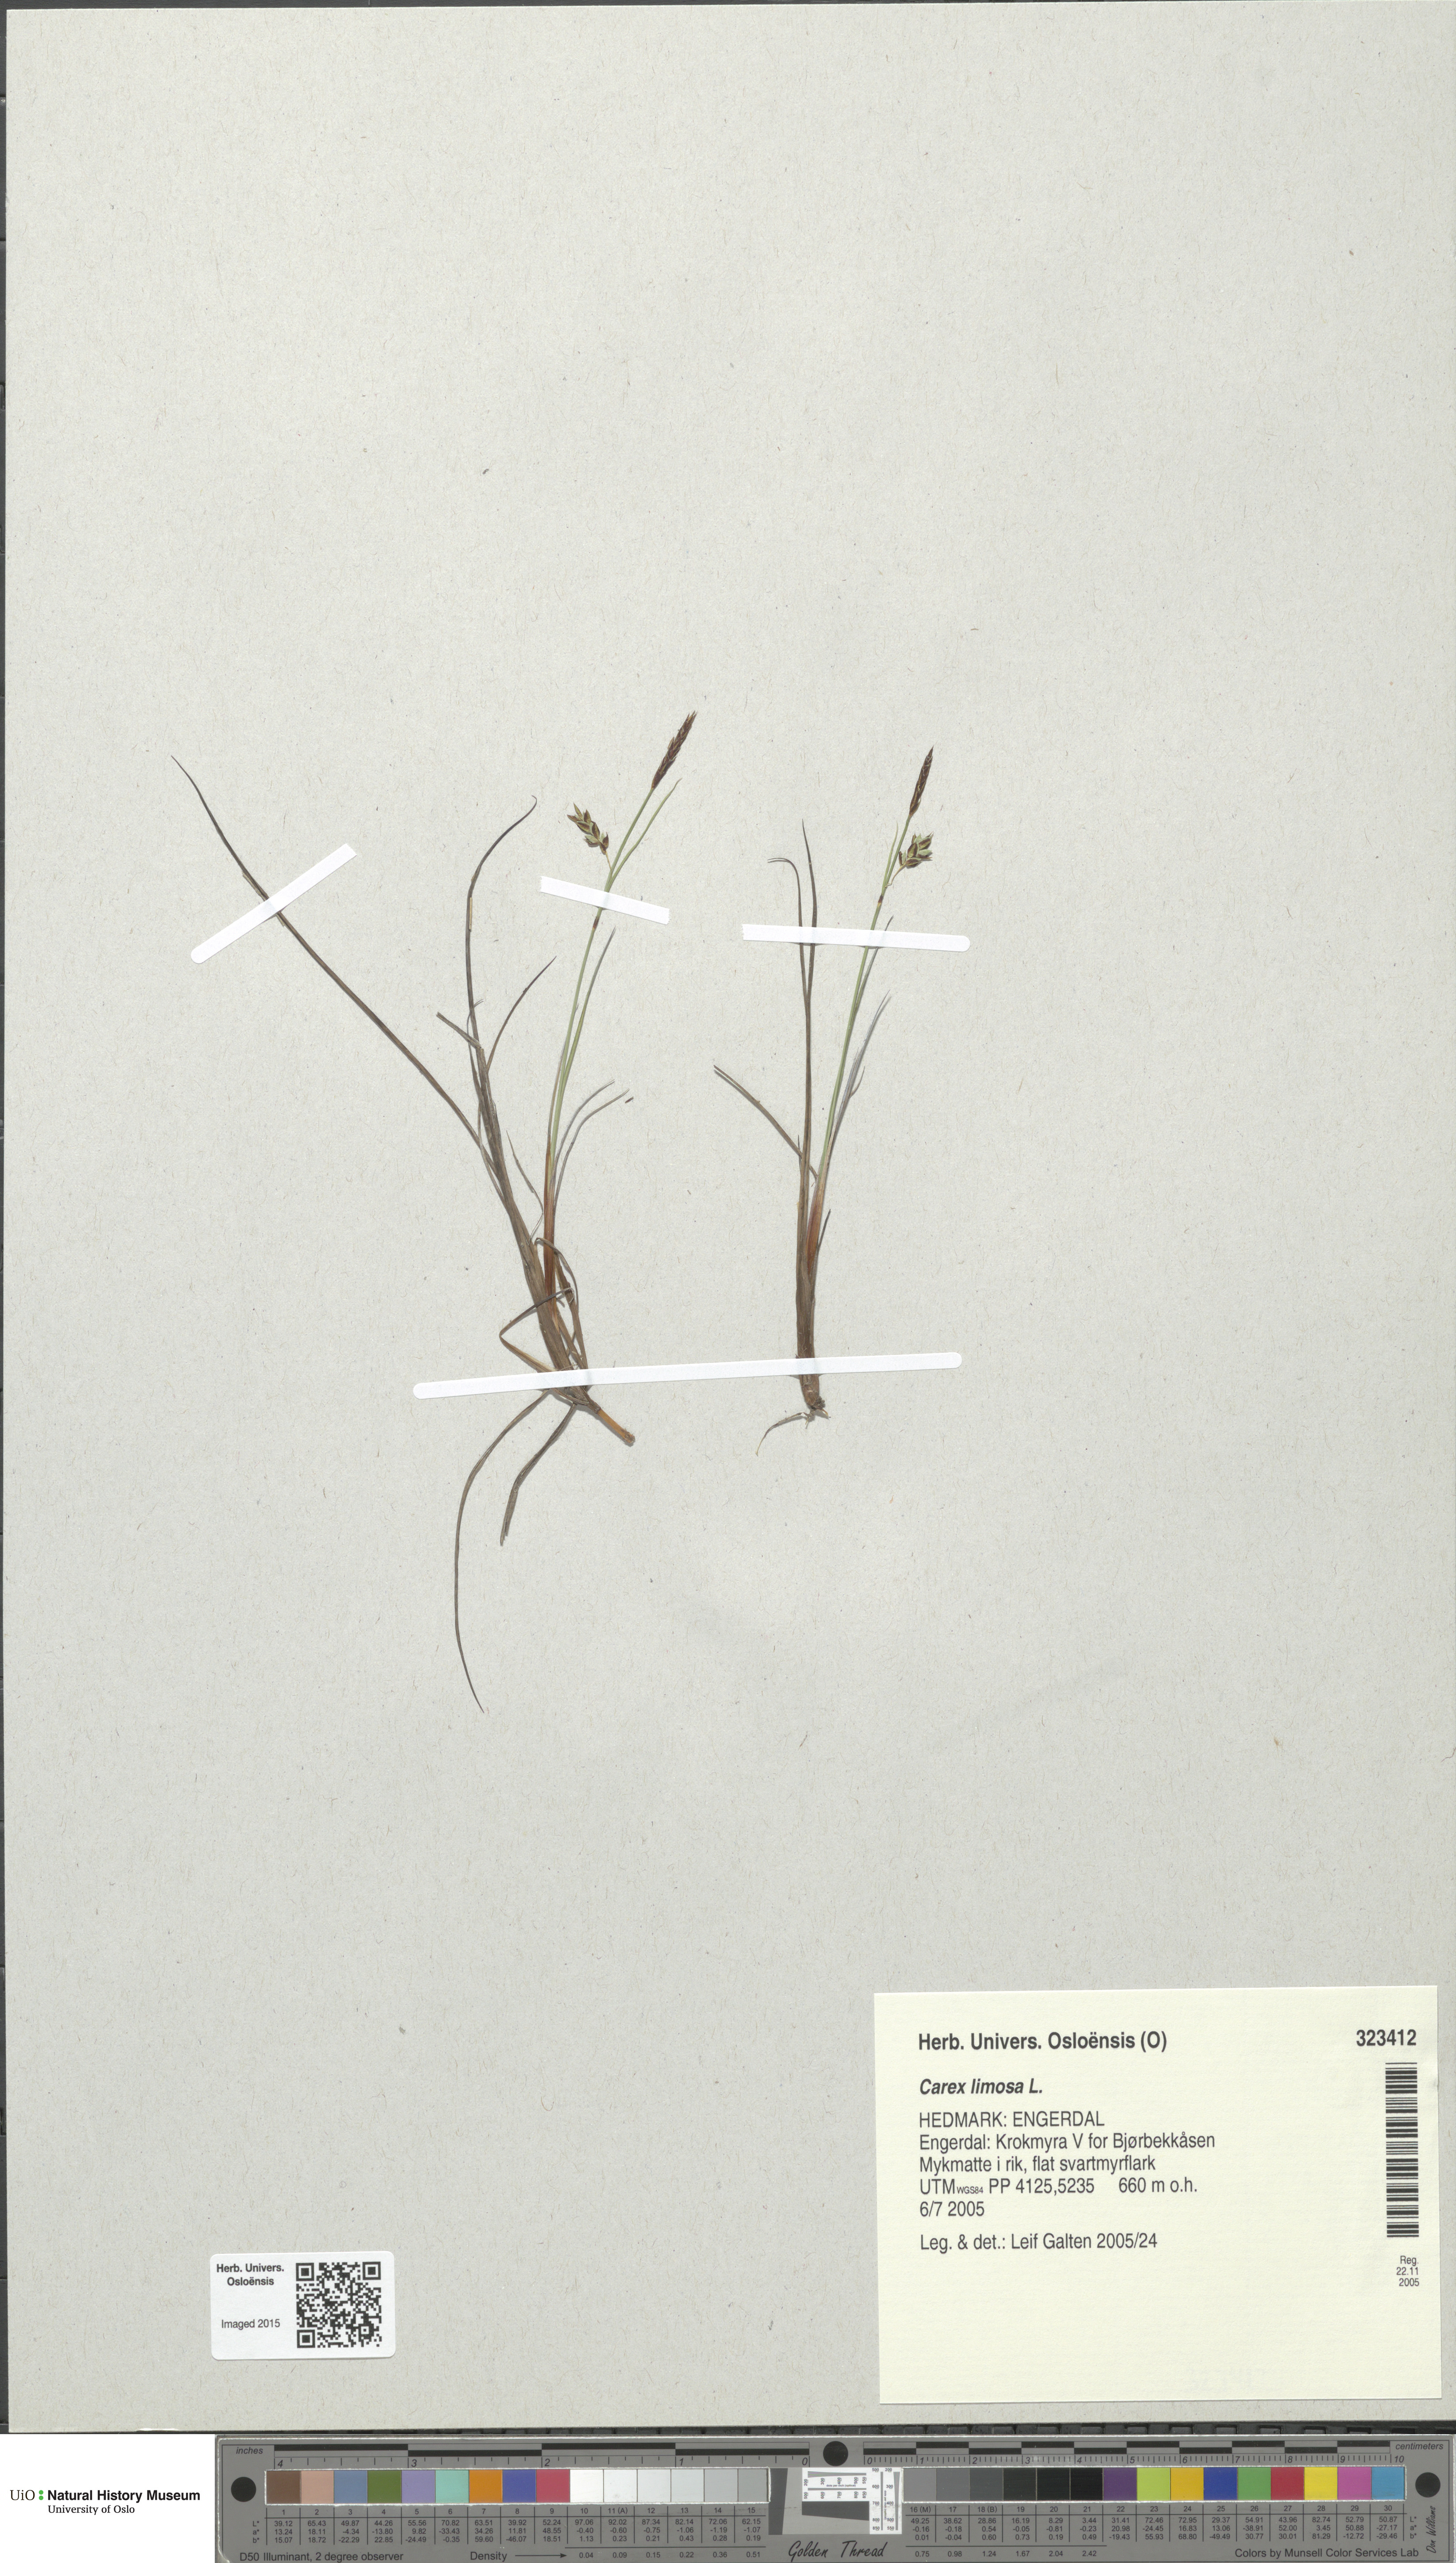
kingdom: Plantae
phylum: Tracheophyta
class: Liliopsida
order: Poales
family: Cyperaceae
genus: Carex
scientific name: Carex limosa
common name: Bog sedge
